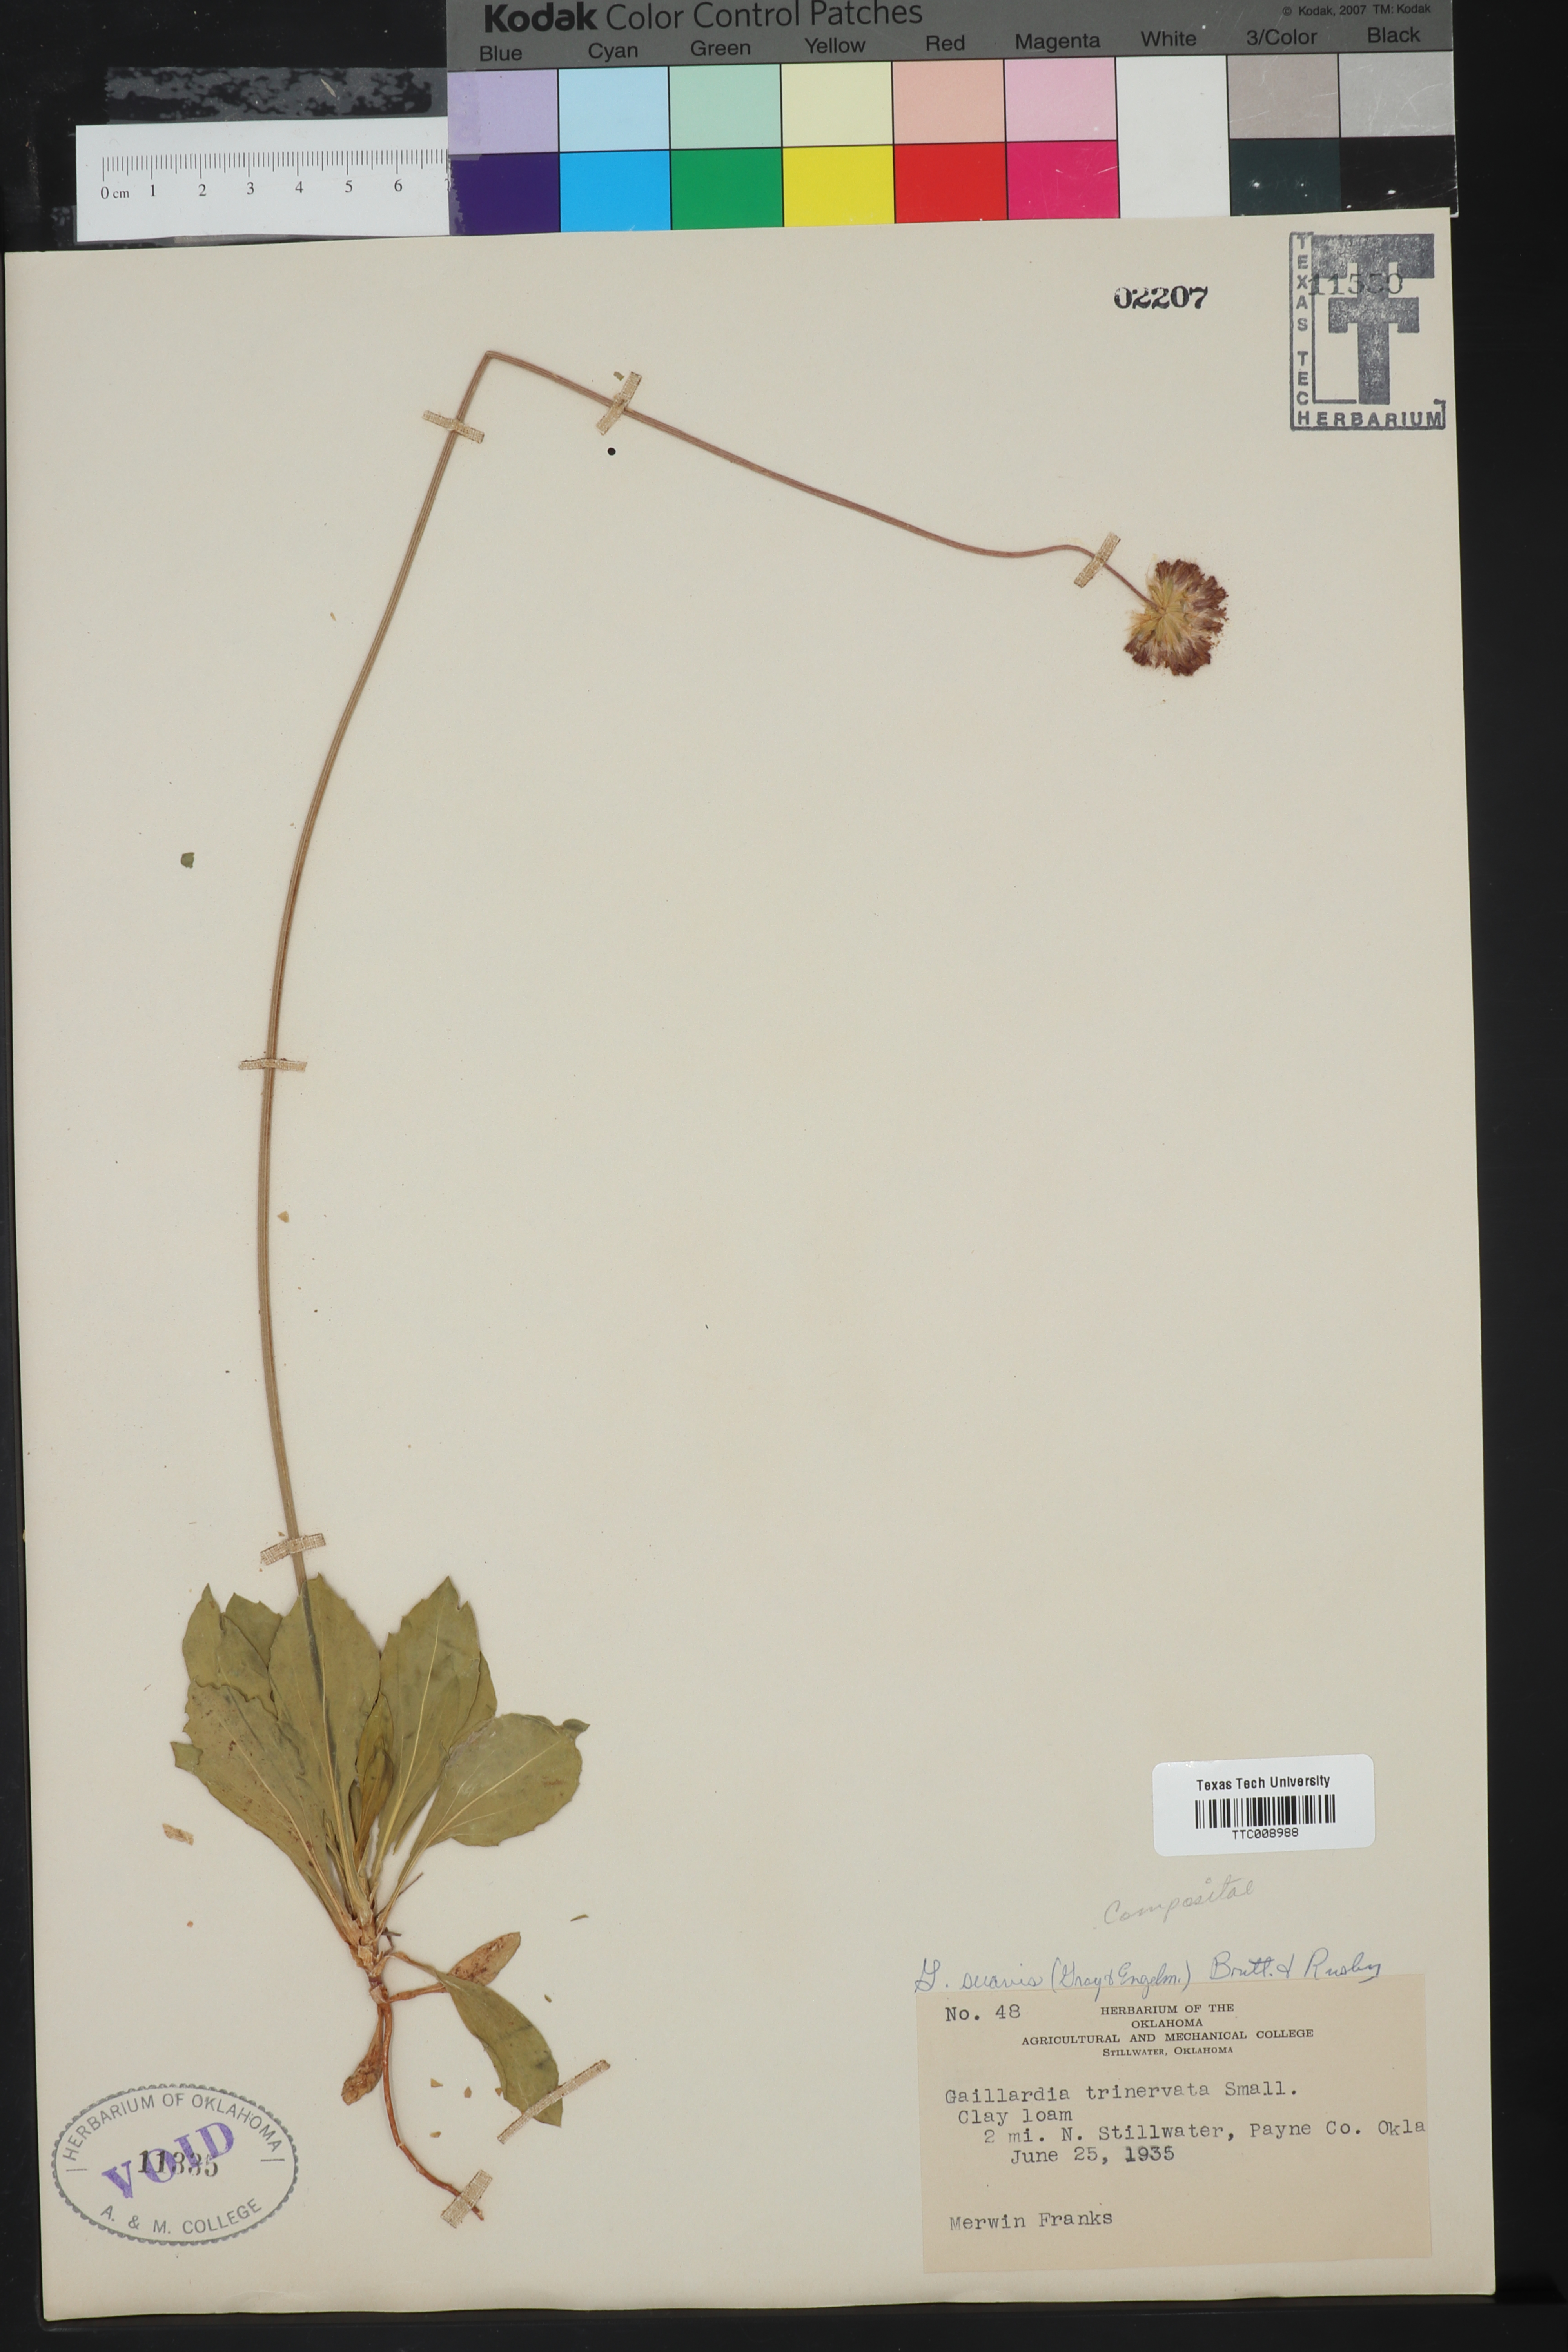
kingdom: Plantae
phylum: Tracheophyta
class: Magnoliopsida
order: Asterales
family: Asteraceae
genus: Gaillardia
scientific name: Gaillardia suavis
